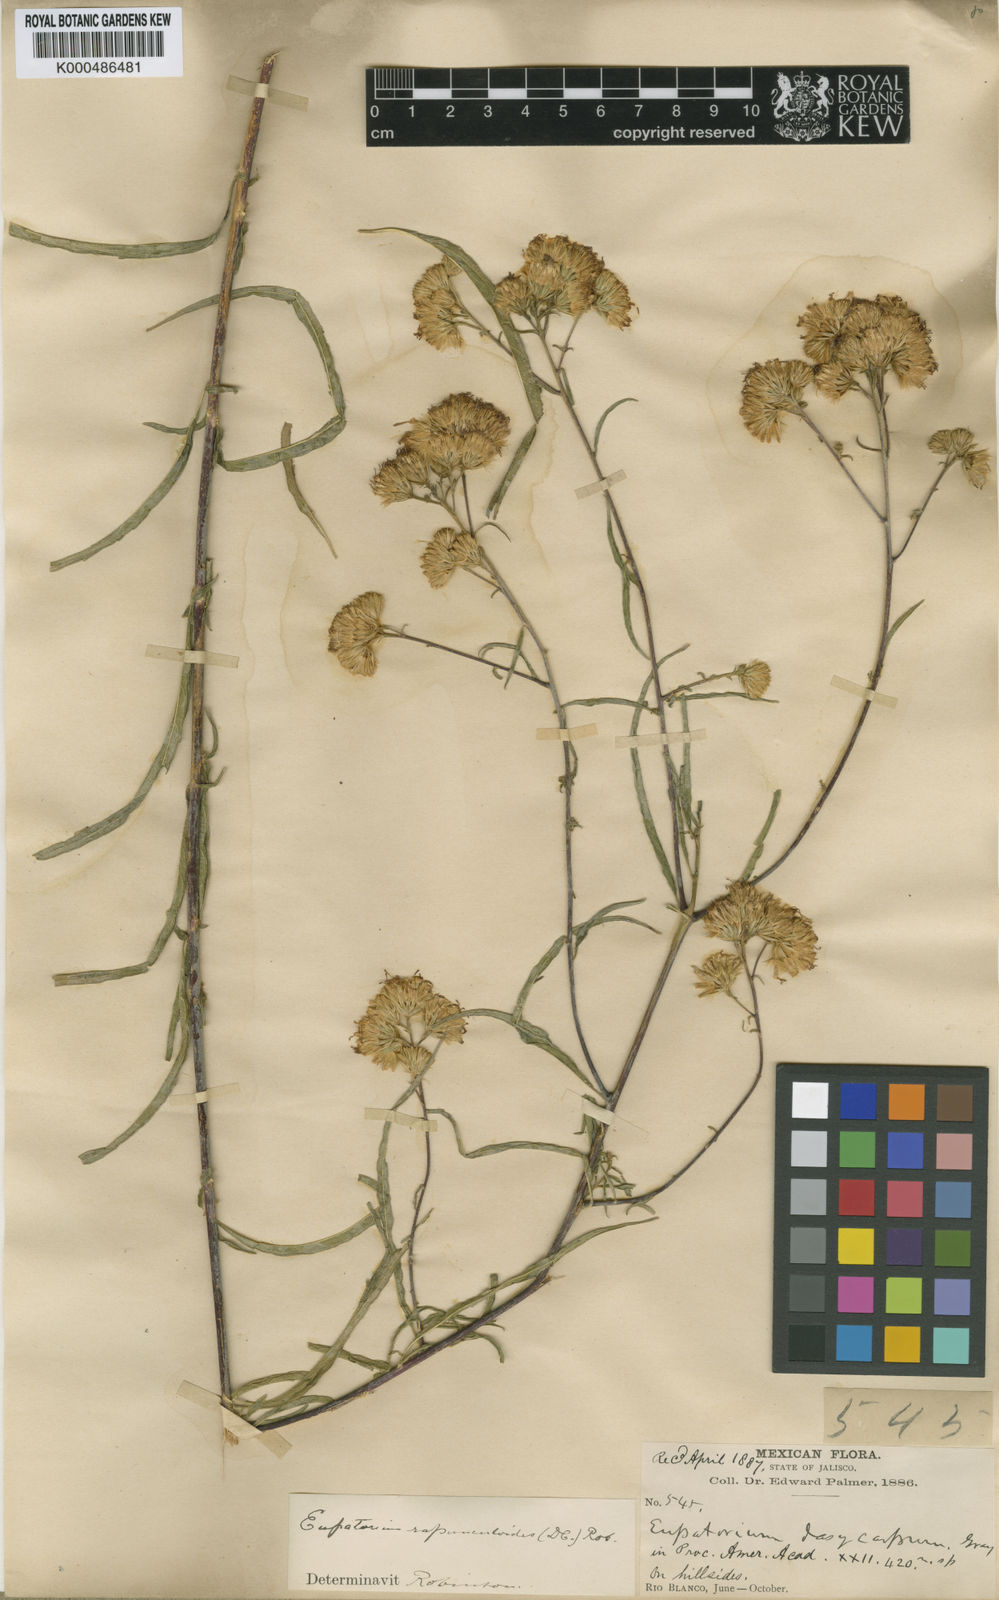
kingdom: Plantae
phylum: Tracheophyta
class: Magnoliopsida
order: Asterales
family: Asteraceae
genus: Steviopsis
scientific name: Steviopsis rapunculoides
